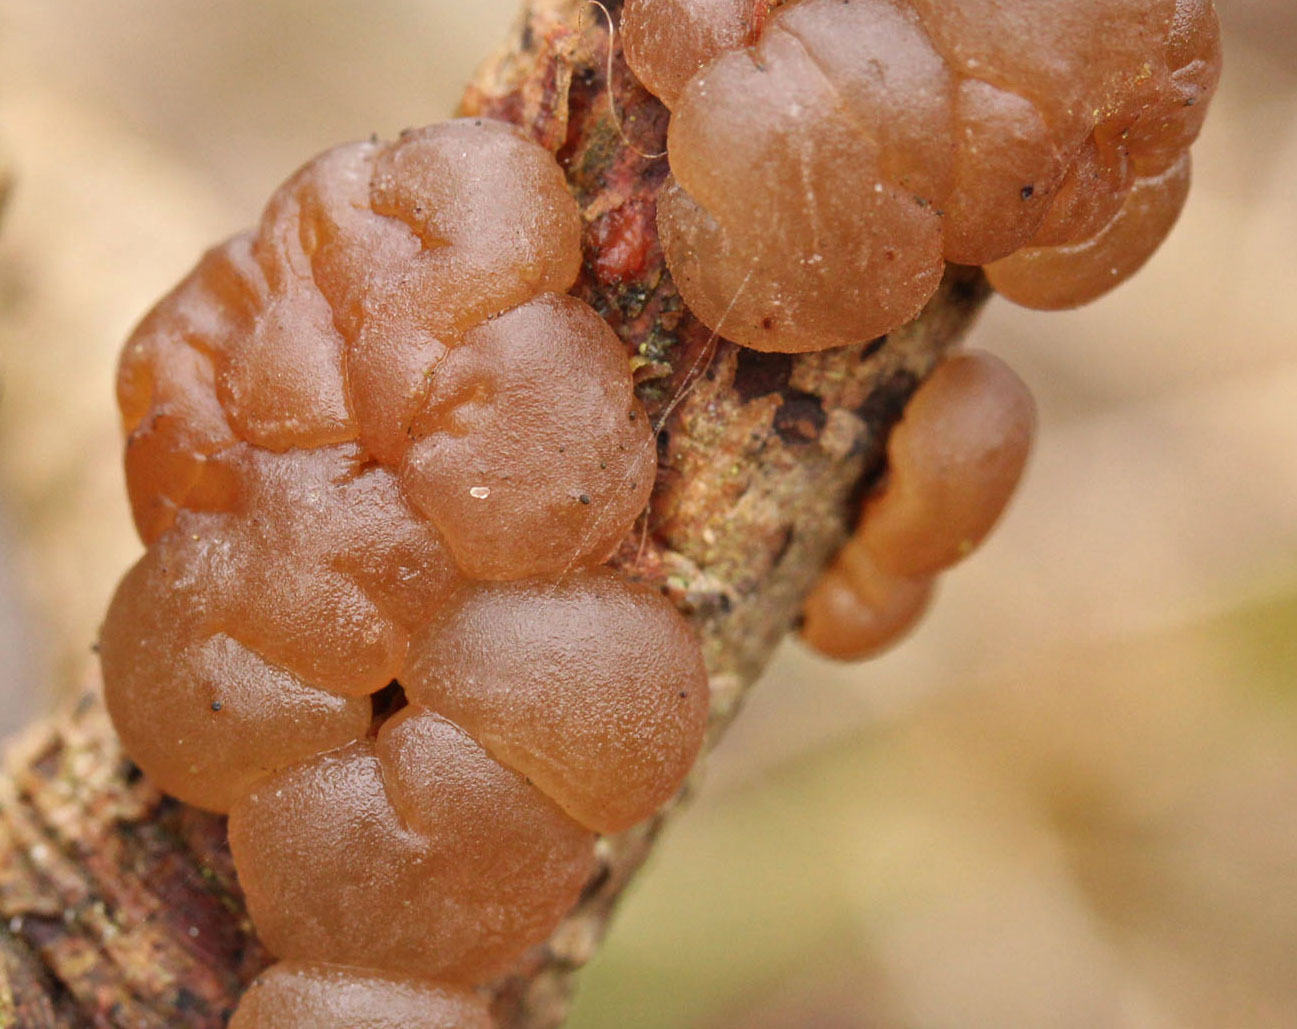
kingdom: Fungi
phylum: Basidiomycota
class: Agaricomycetes
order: Auriculariales
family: Auriculariaceae
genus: Exidia
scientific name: Exidia saccharina
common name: kandis-bævretop
